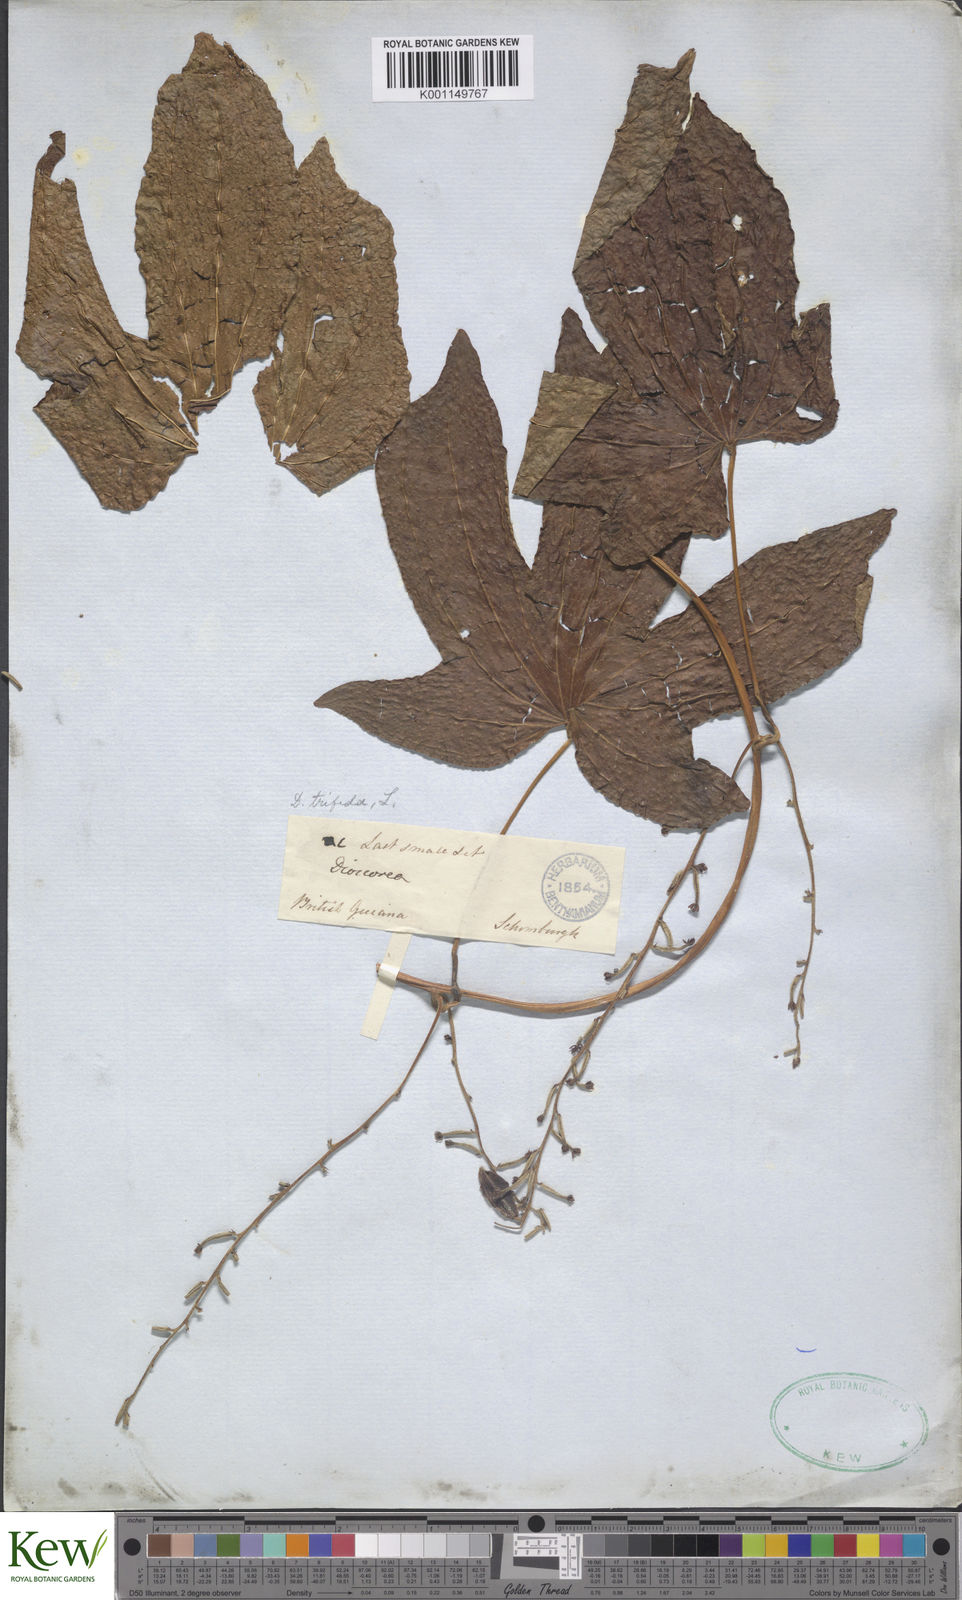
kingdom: Plantae
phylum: Tracheophyta
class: Liliopsida
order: Dioscoreales
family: Dioscoreaceae
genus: Dioscorea
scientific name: Dioscorea trifida
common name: Cush-cush
